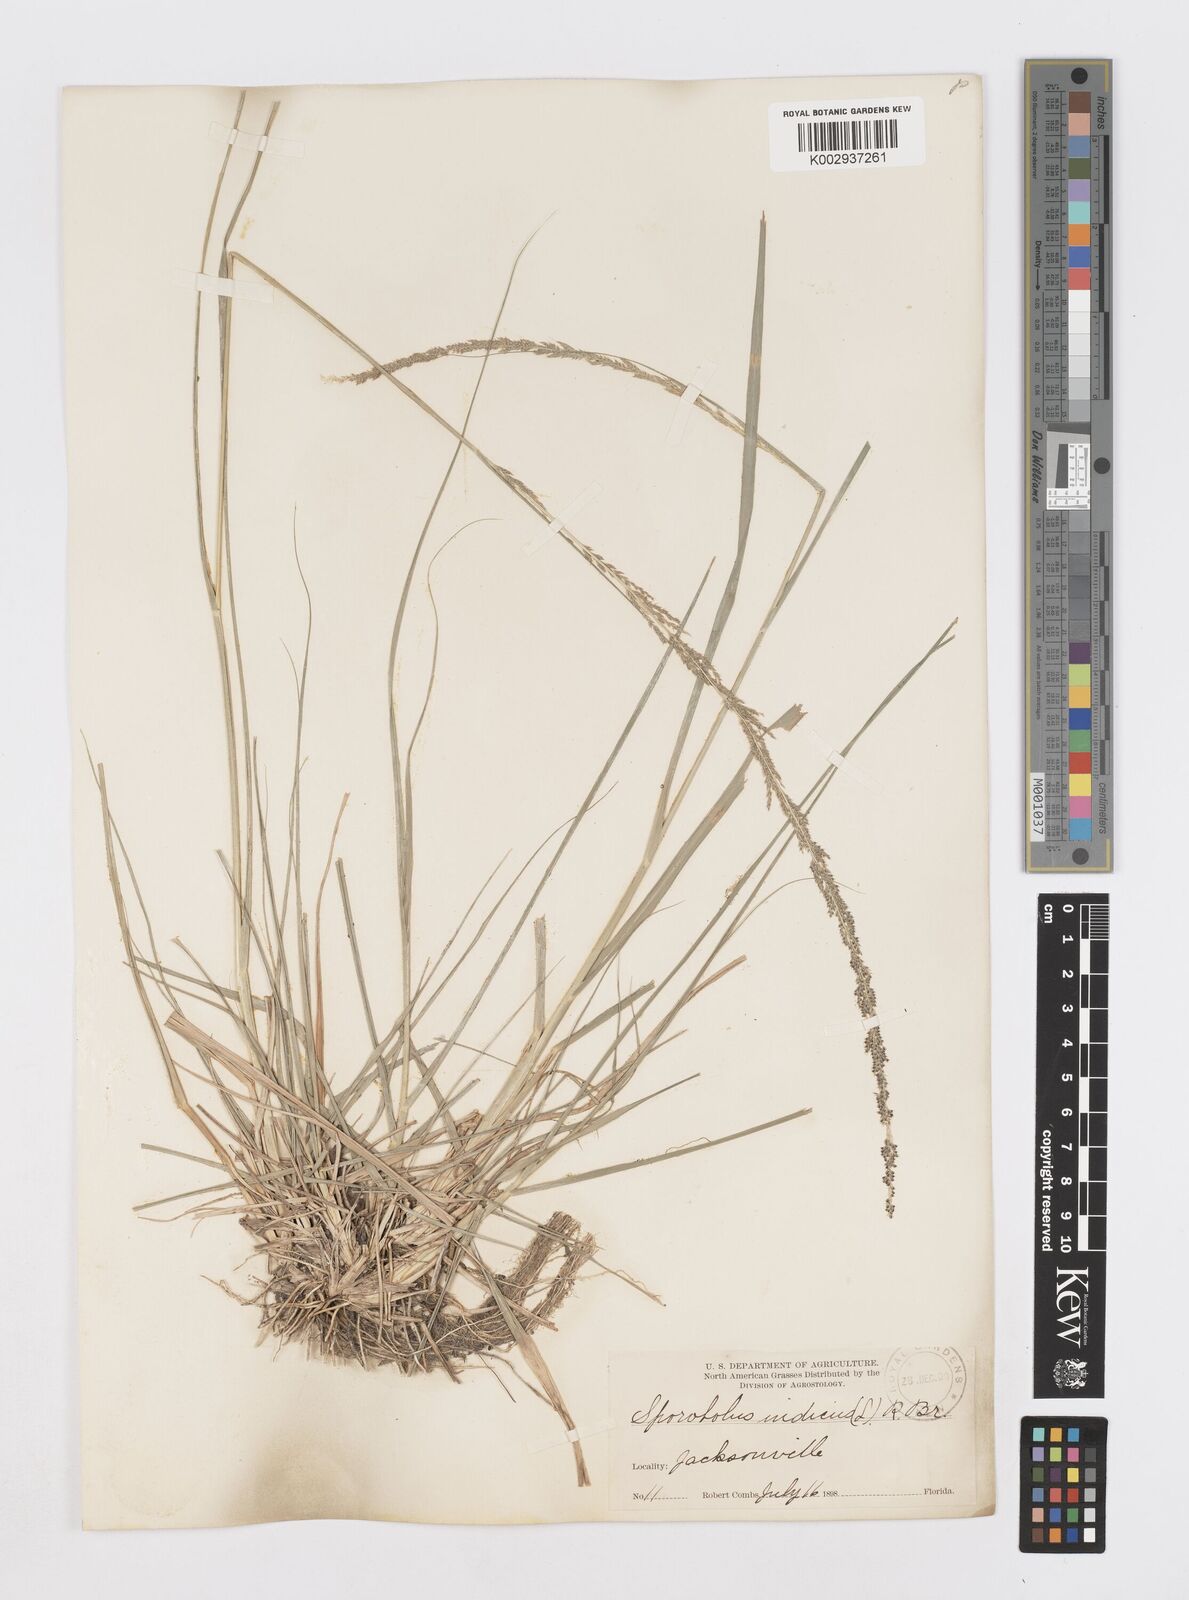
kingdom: Plantae
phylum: Tracheophyta
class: Liliopsida
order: Poales
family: Poaceae
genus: Sporobolus
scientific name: Sporobolus indicus
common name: Smut grass
